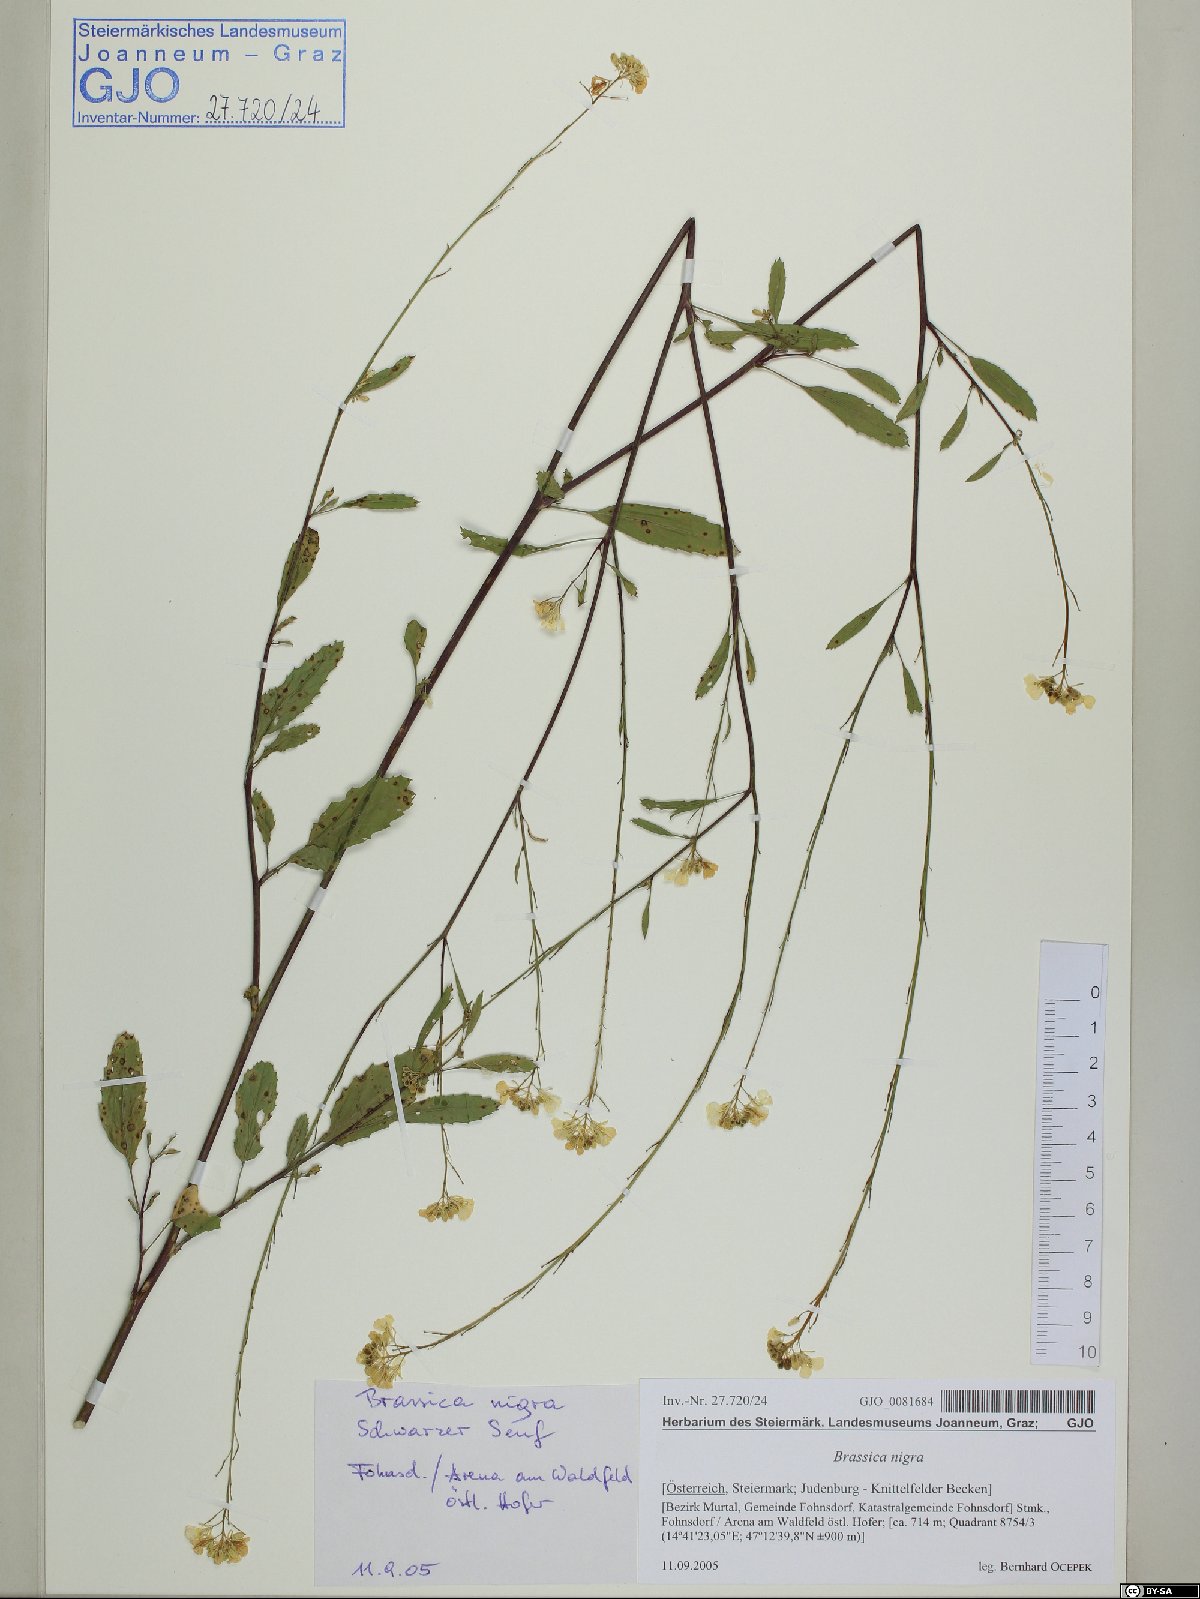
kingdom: Plantae
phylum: Tracheophyta
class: Magnoliopsida
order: Brassicales
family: Brassicaceae
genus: Brassica
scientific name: Brassica nigra
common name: Black mustard
